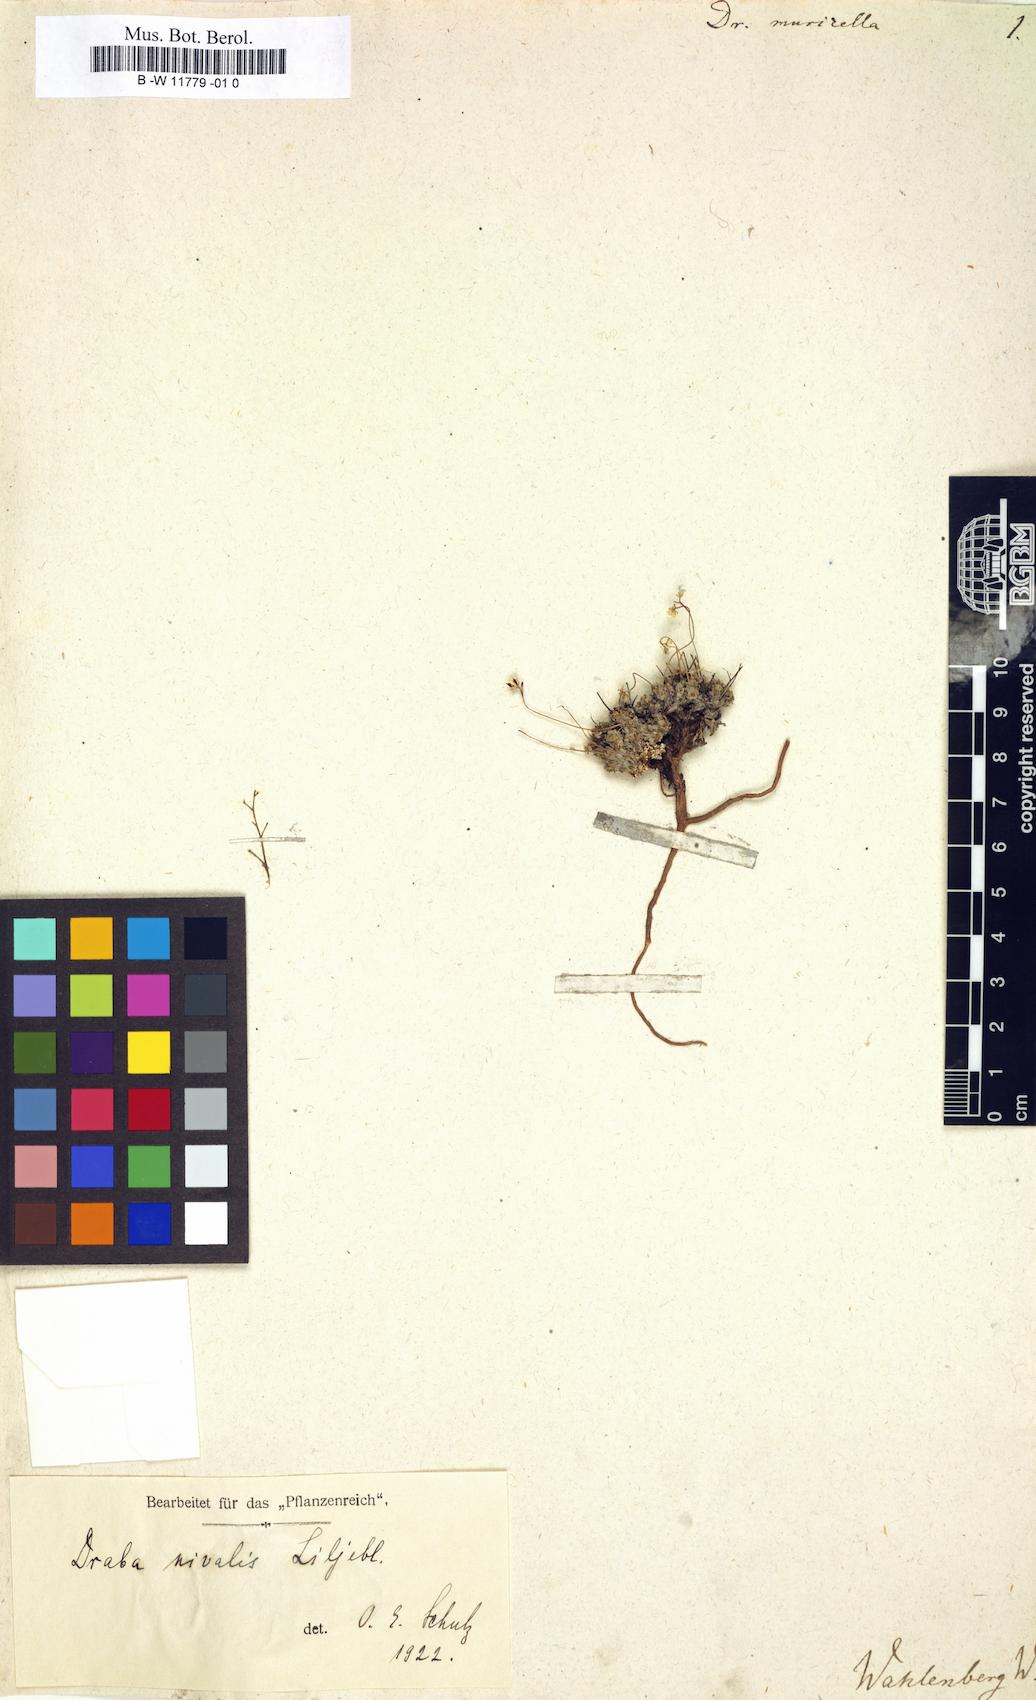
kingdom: Plantae
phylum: Tracheophyta
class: Magnoliopsida
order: Brassicales
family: Brassicaceae
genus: Draba
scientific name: Draba nivalis
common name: Snow draba
